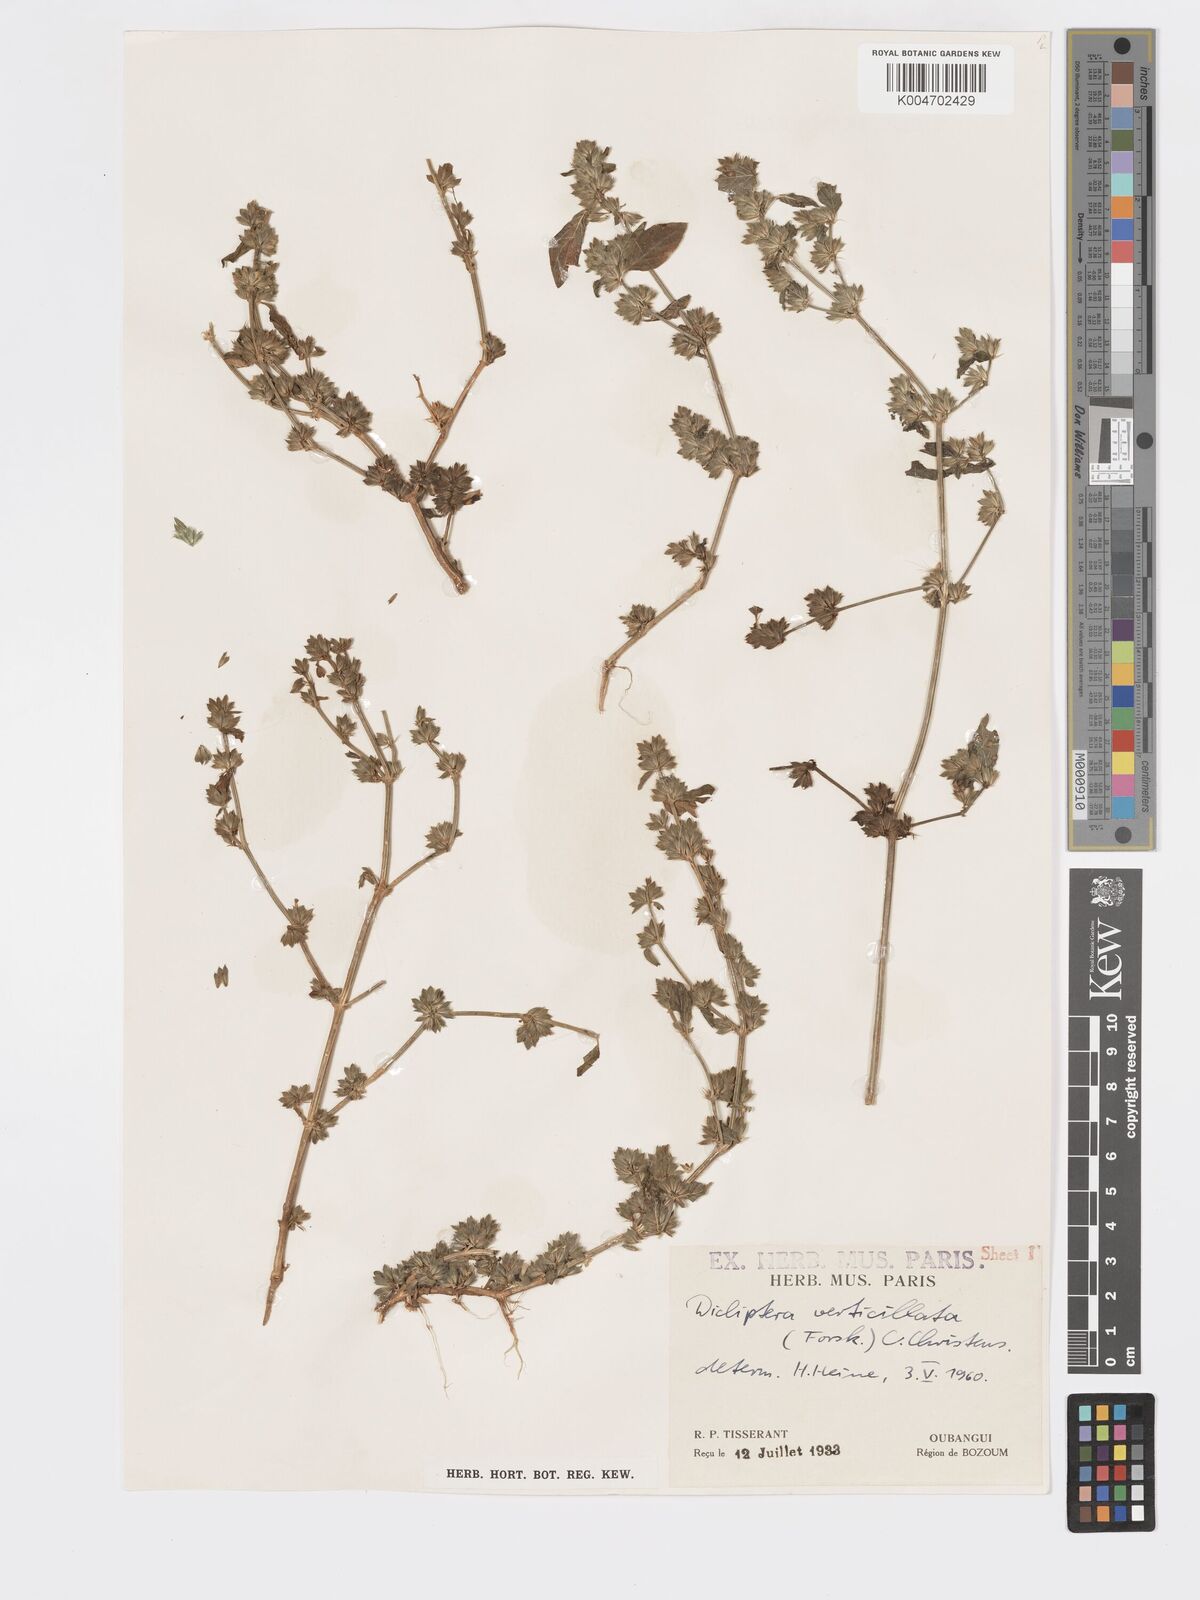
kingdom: Plantae
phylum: Tracheophyta
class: Magnoliopsida
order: Lamiales
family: Acanthaceae
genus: Dicliptera
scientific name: Dicliptera verticillata
